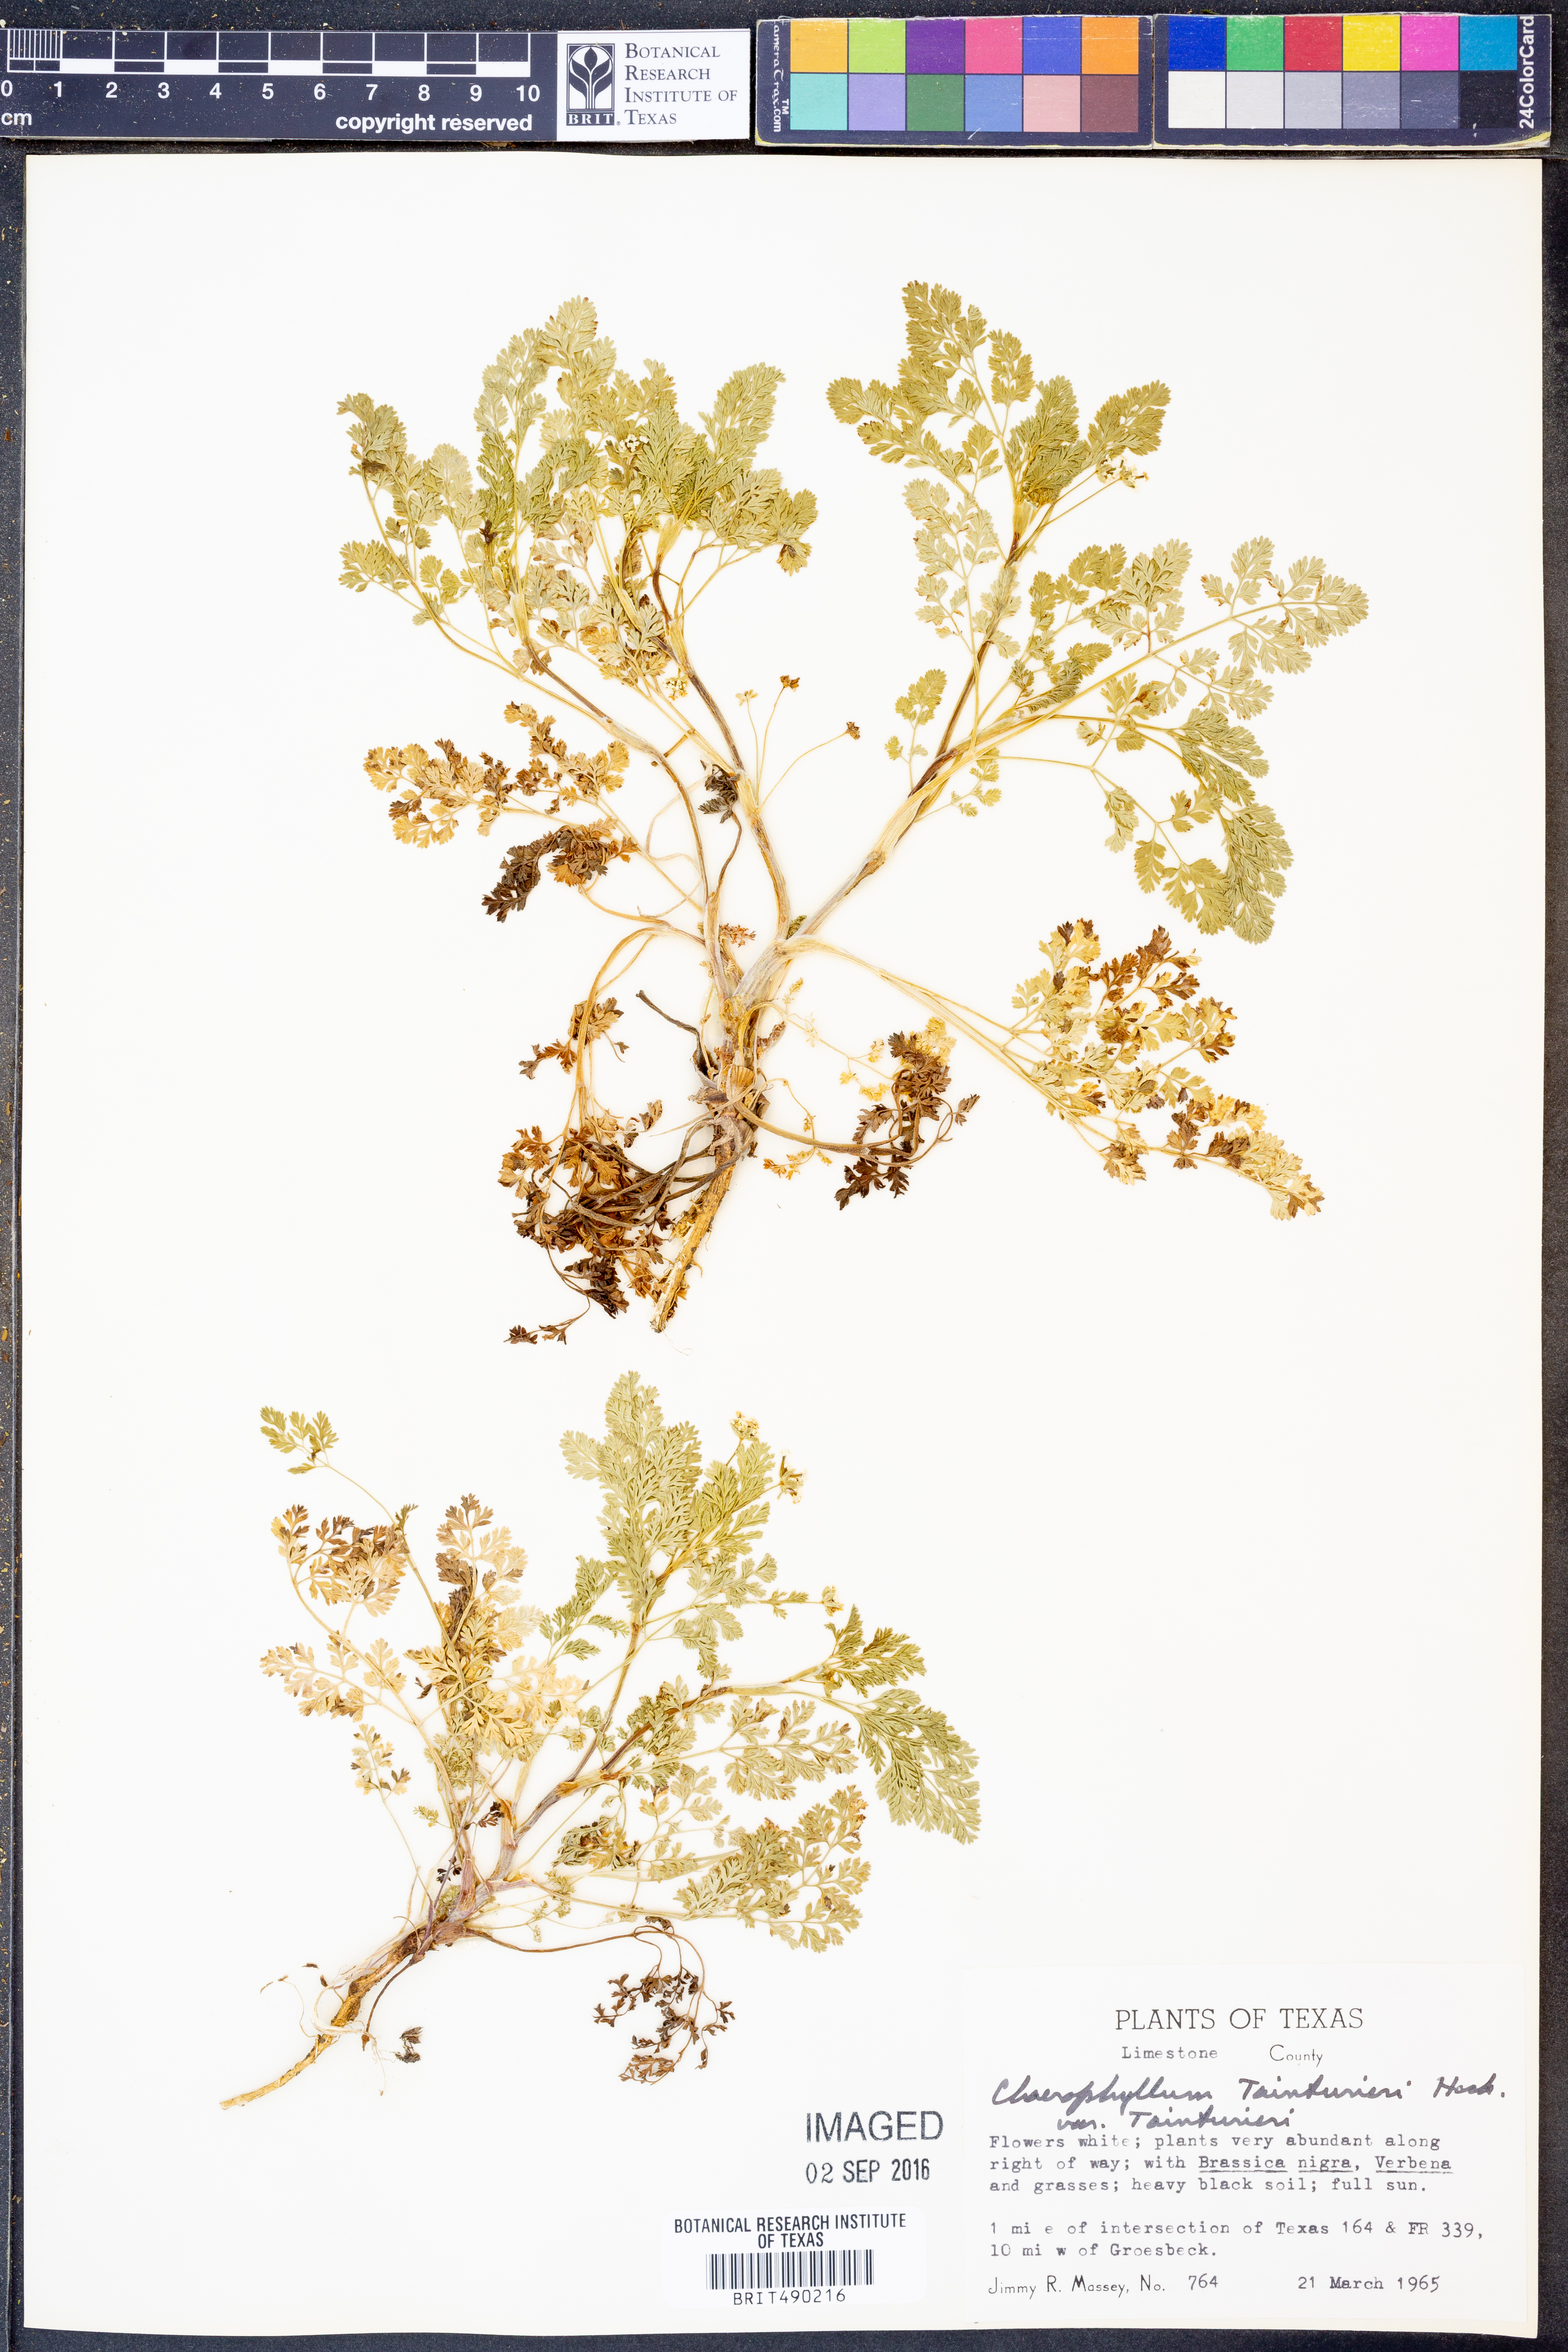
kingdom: Plantae
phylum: Tracheophyta
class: Magnoliopsida
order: Apiales
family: Apiaceae
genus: Chaerophyllum
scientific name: Chaerophyllum tainturieri
